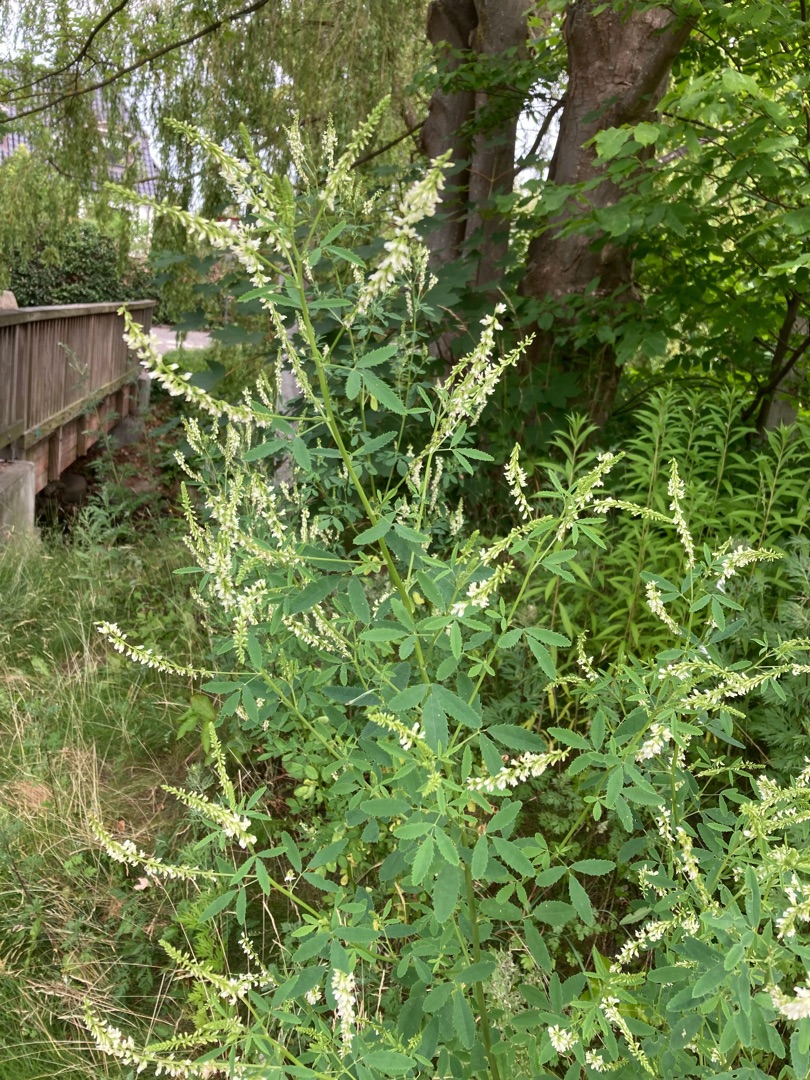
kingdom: Plantae
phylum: Tracheophyta
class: Magnoliopsida
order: Fabales
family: Fabaceae
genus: Melilotus
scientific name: Melilotus albus
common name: Hvid stenkløver
